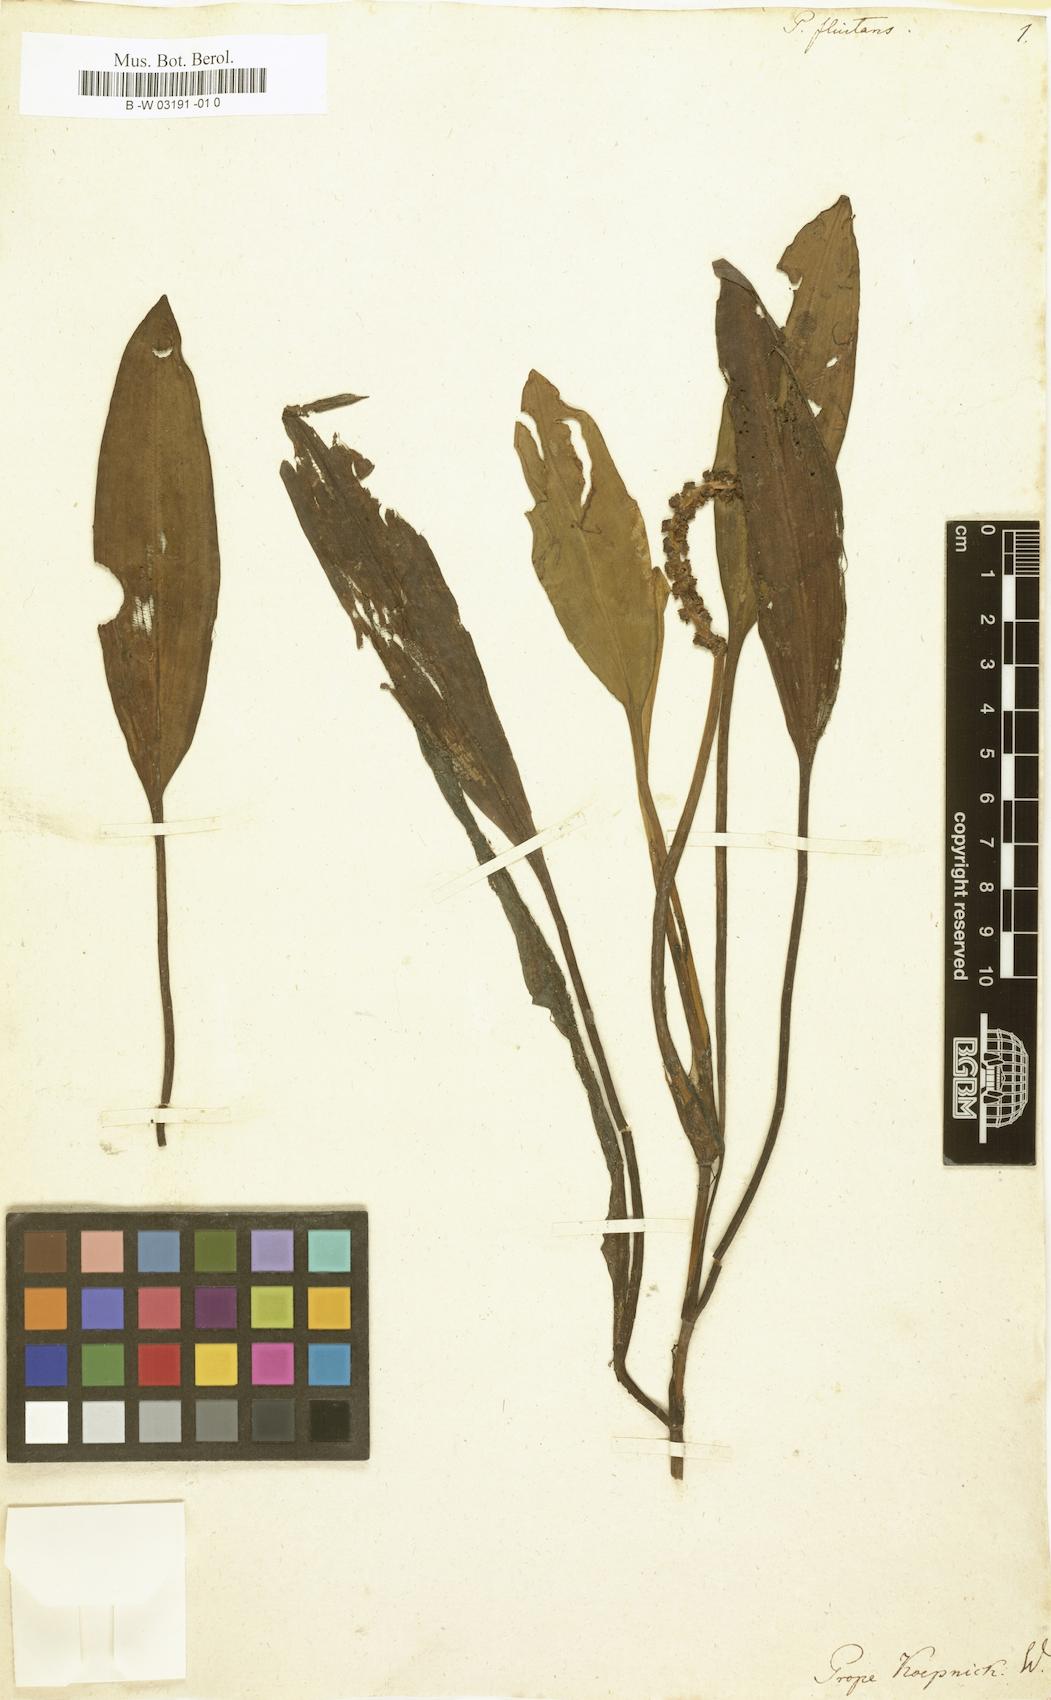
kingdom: Plantae
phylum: Tracheophyta
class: Liliopsida
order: Alismatales
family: Potamogetonaceae
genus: Potamogeton
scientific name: Potamogeton fluitans
